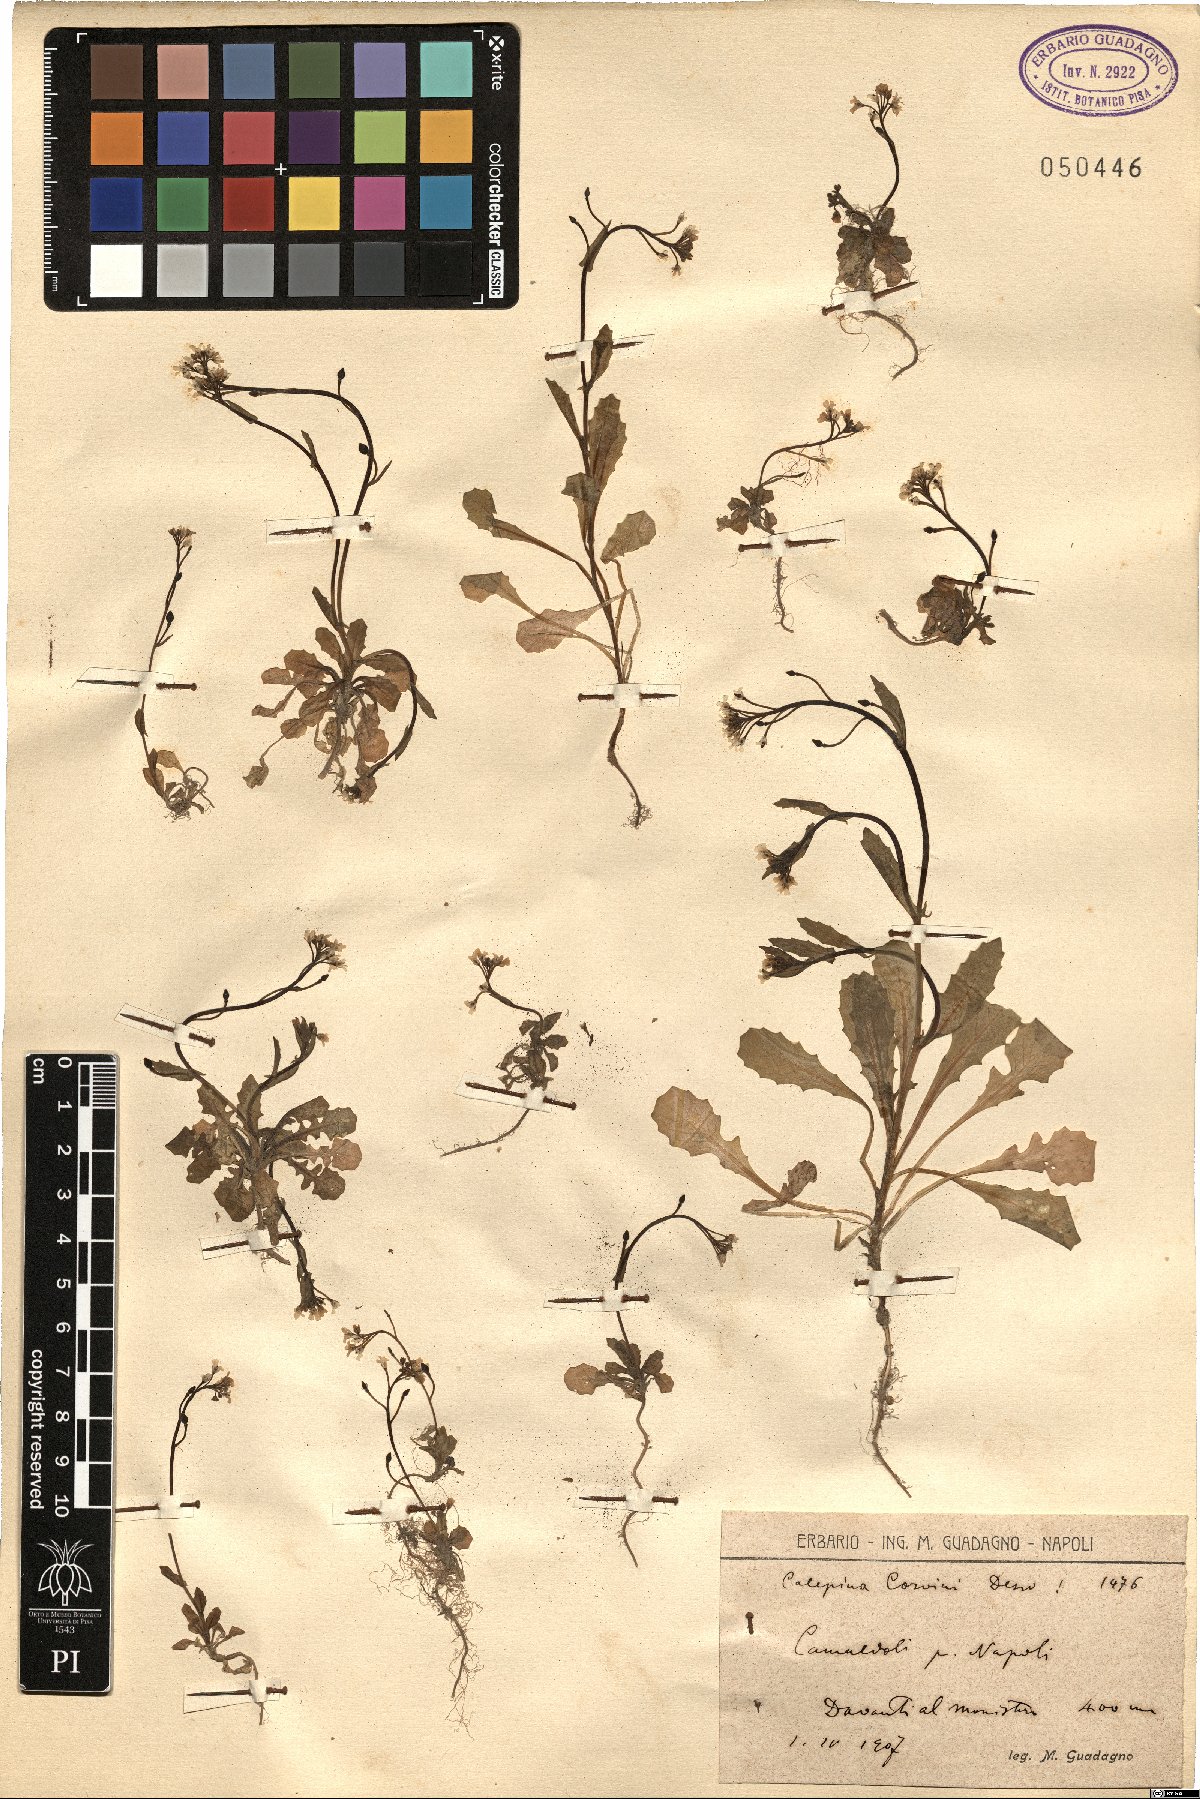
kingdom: Plantae
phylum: Tracheophyta
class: Magnoliopsida
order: Brassicales
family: Brassicaceae
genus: Calepina
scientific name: Calepina irregularis
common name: White ballmustard
